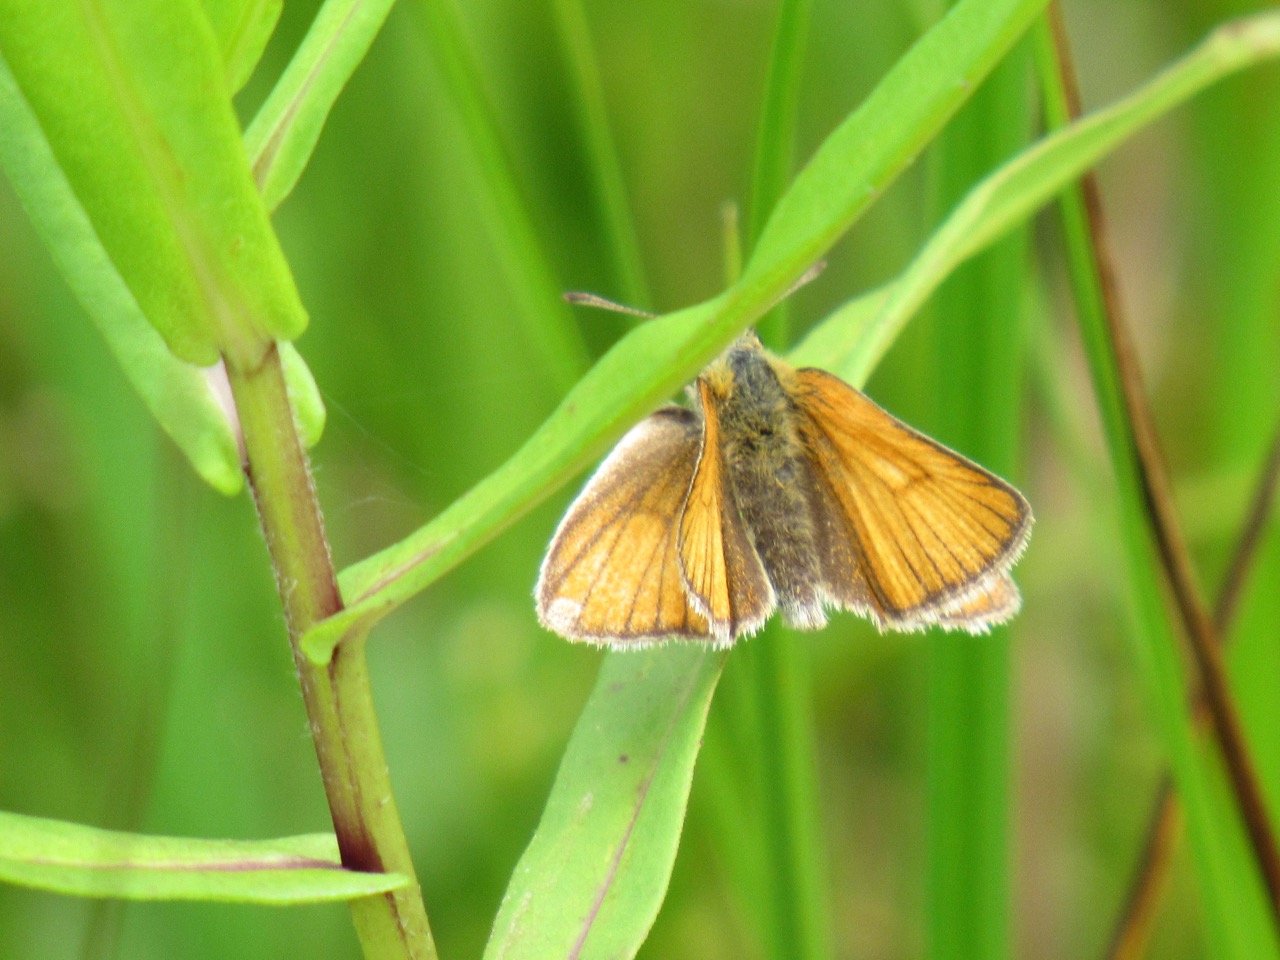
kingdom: Animalia
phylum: Arthropoda
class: Insecta
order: Lepidoptera
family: Hesperiidae
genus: Thymelicus
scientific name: Thymelicus lineola
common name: European Skipper
